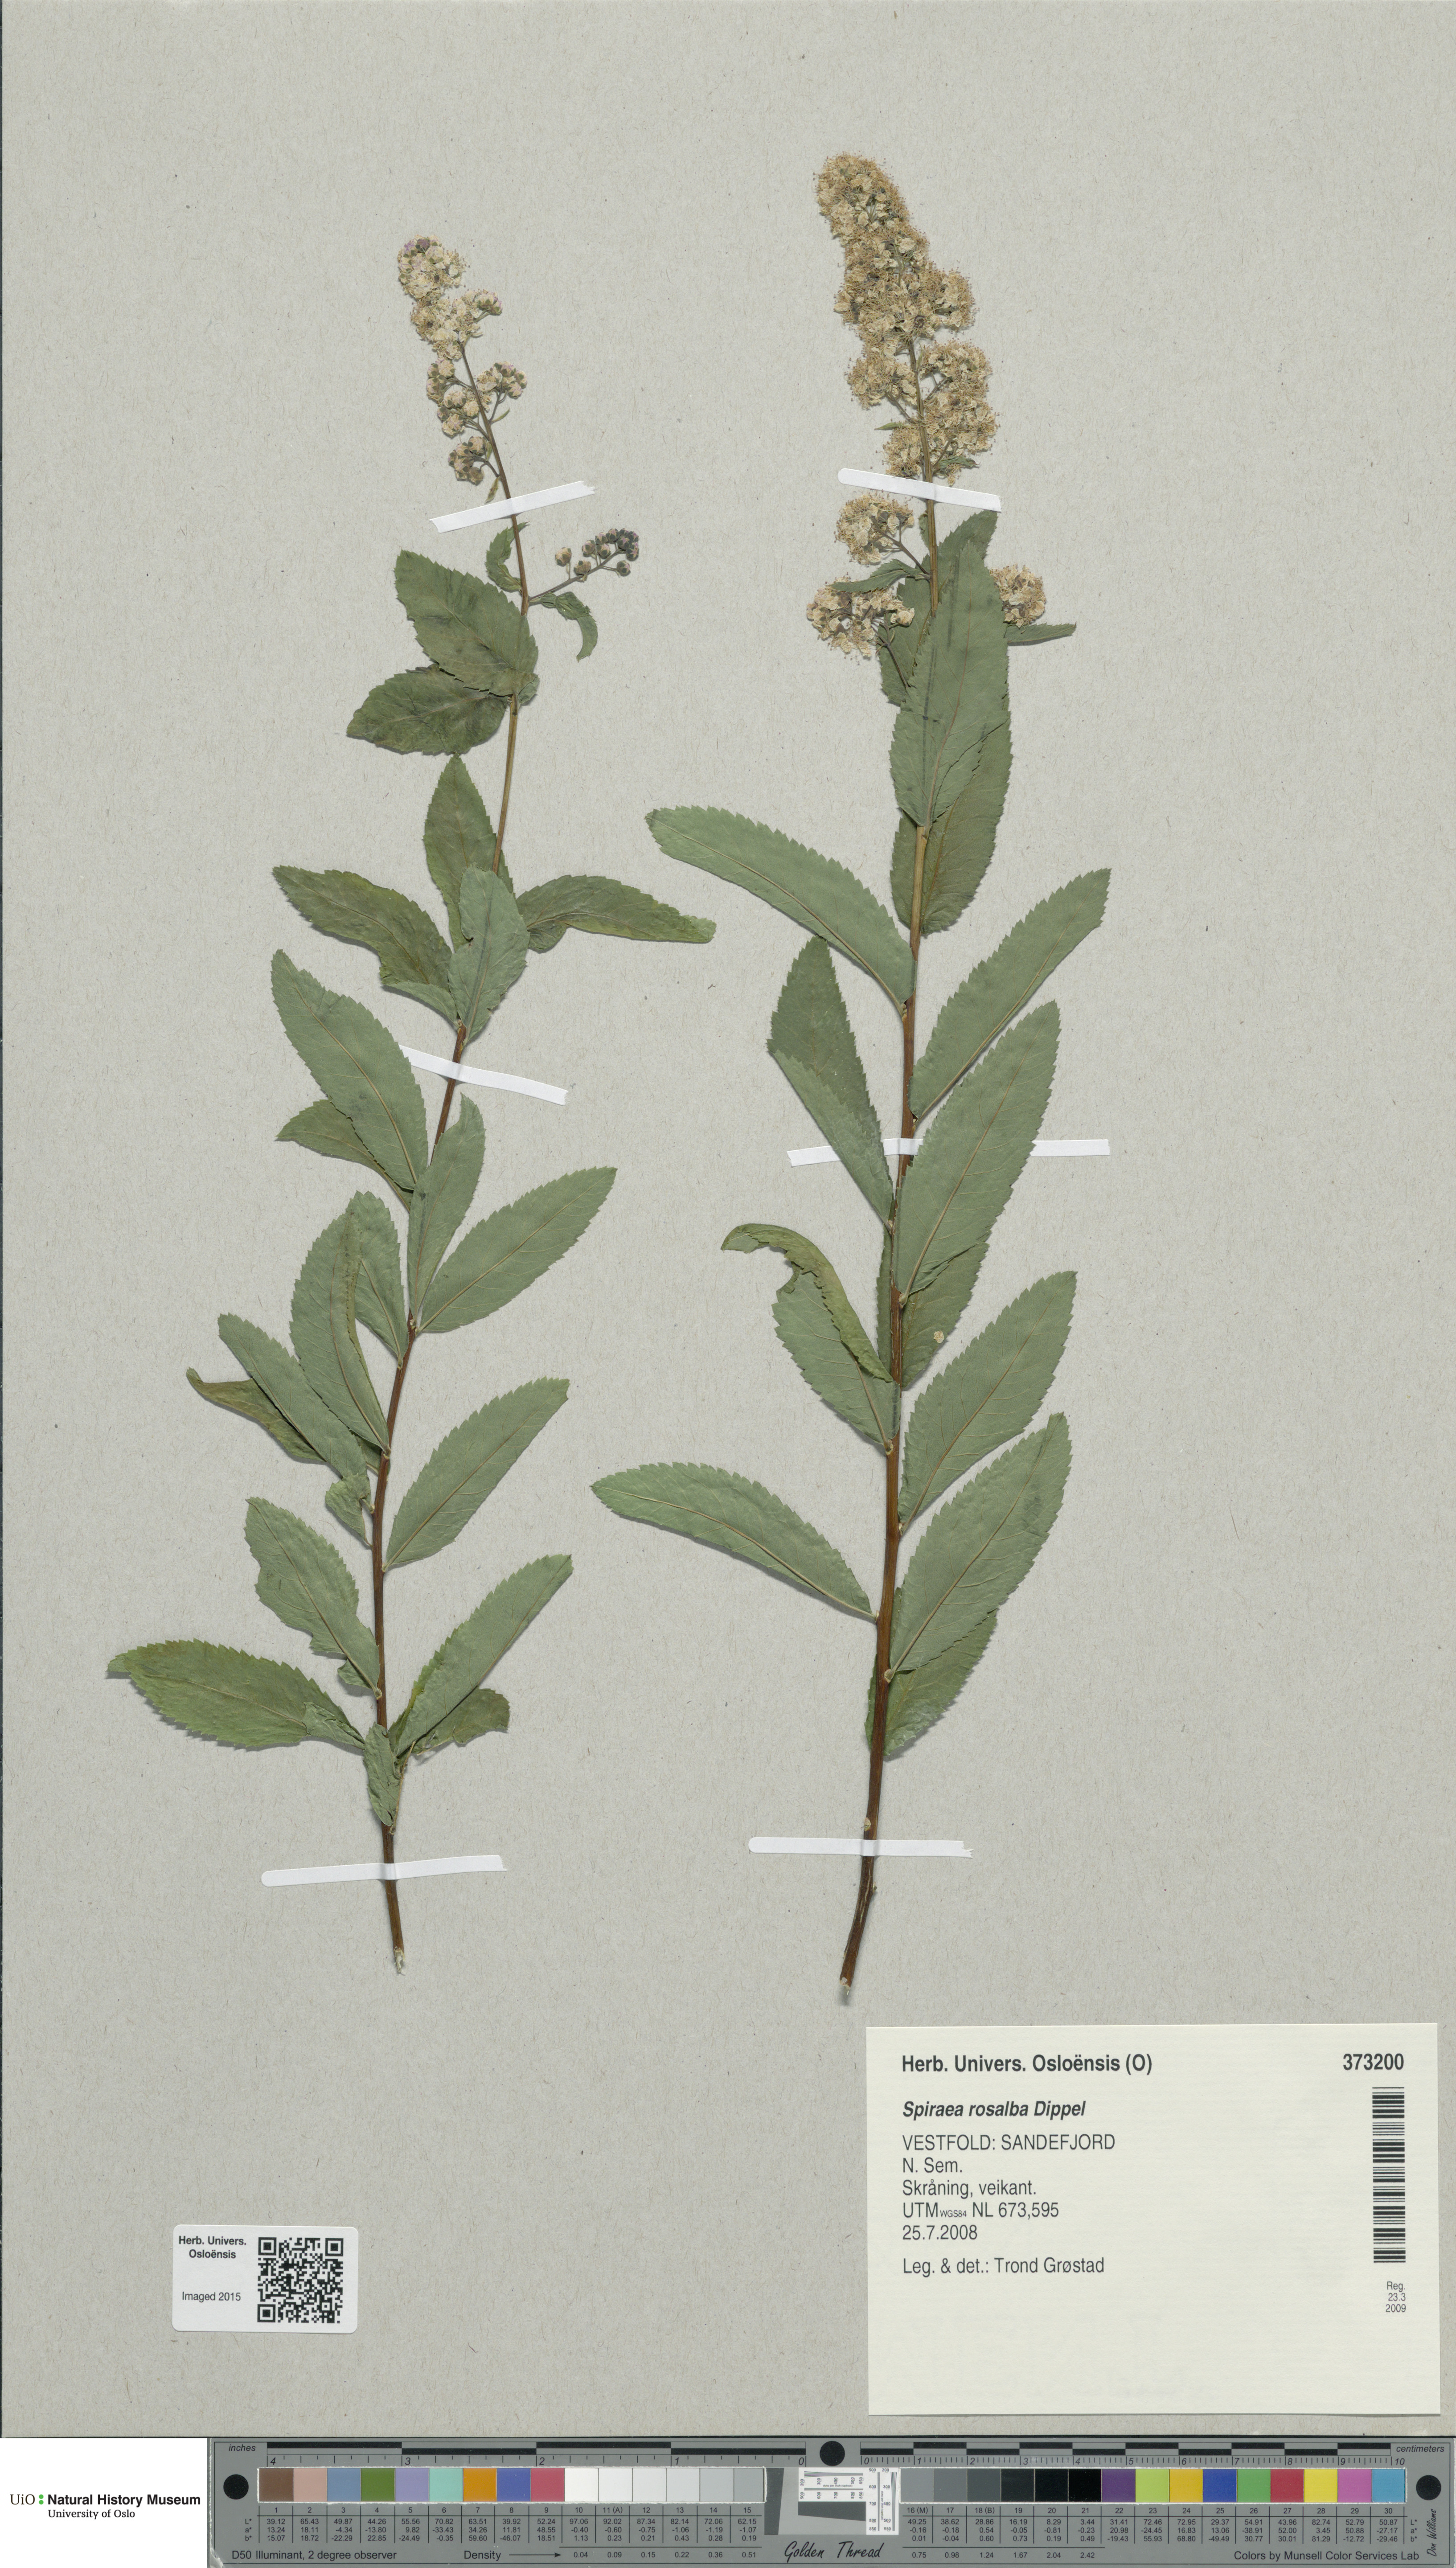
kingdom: Plantae
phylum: Tracheophyta
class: Magnoliopsida
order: Rosales
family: Rosaceae
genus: Spiraea
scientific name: Spiraea rosalba
